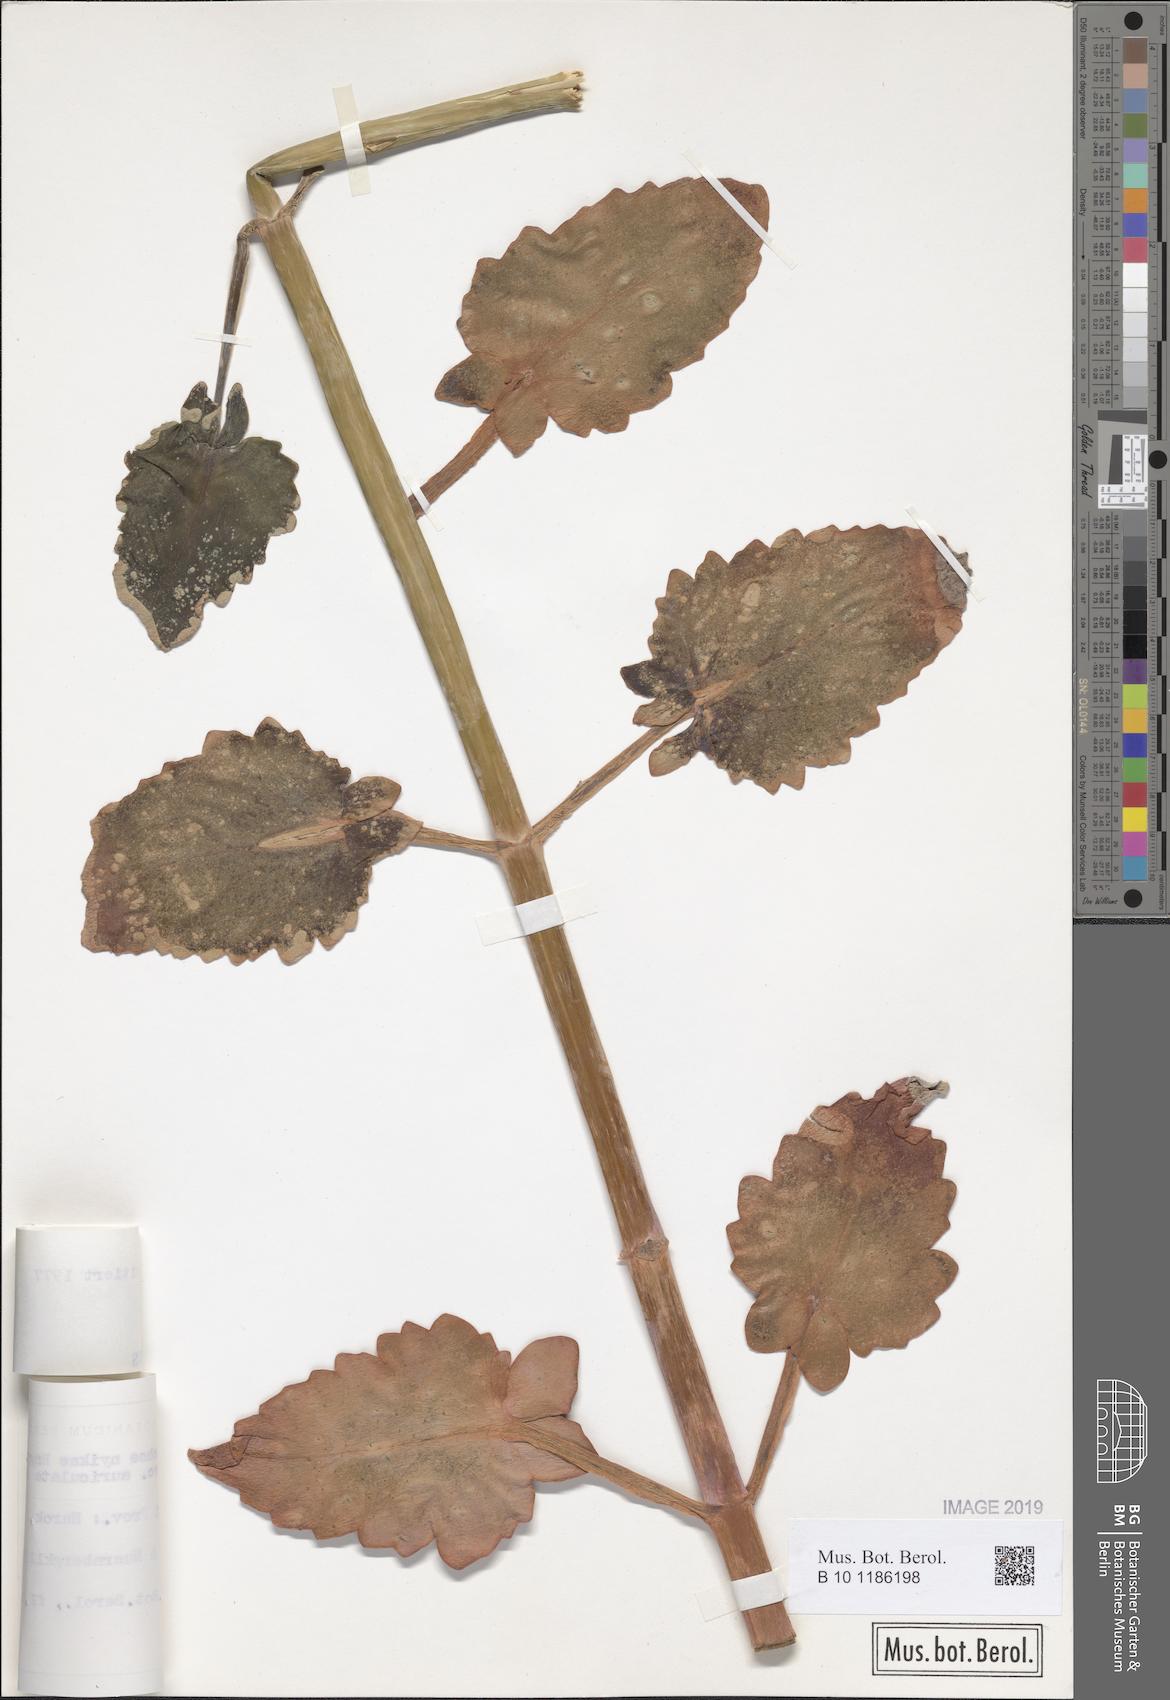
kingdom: Plantae
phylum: Tracheophyta
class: Magnoliopsida
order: Saxifragales
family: Crassulaceae
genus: Kalanchoe
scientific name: Kalanchoe auriculata
